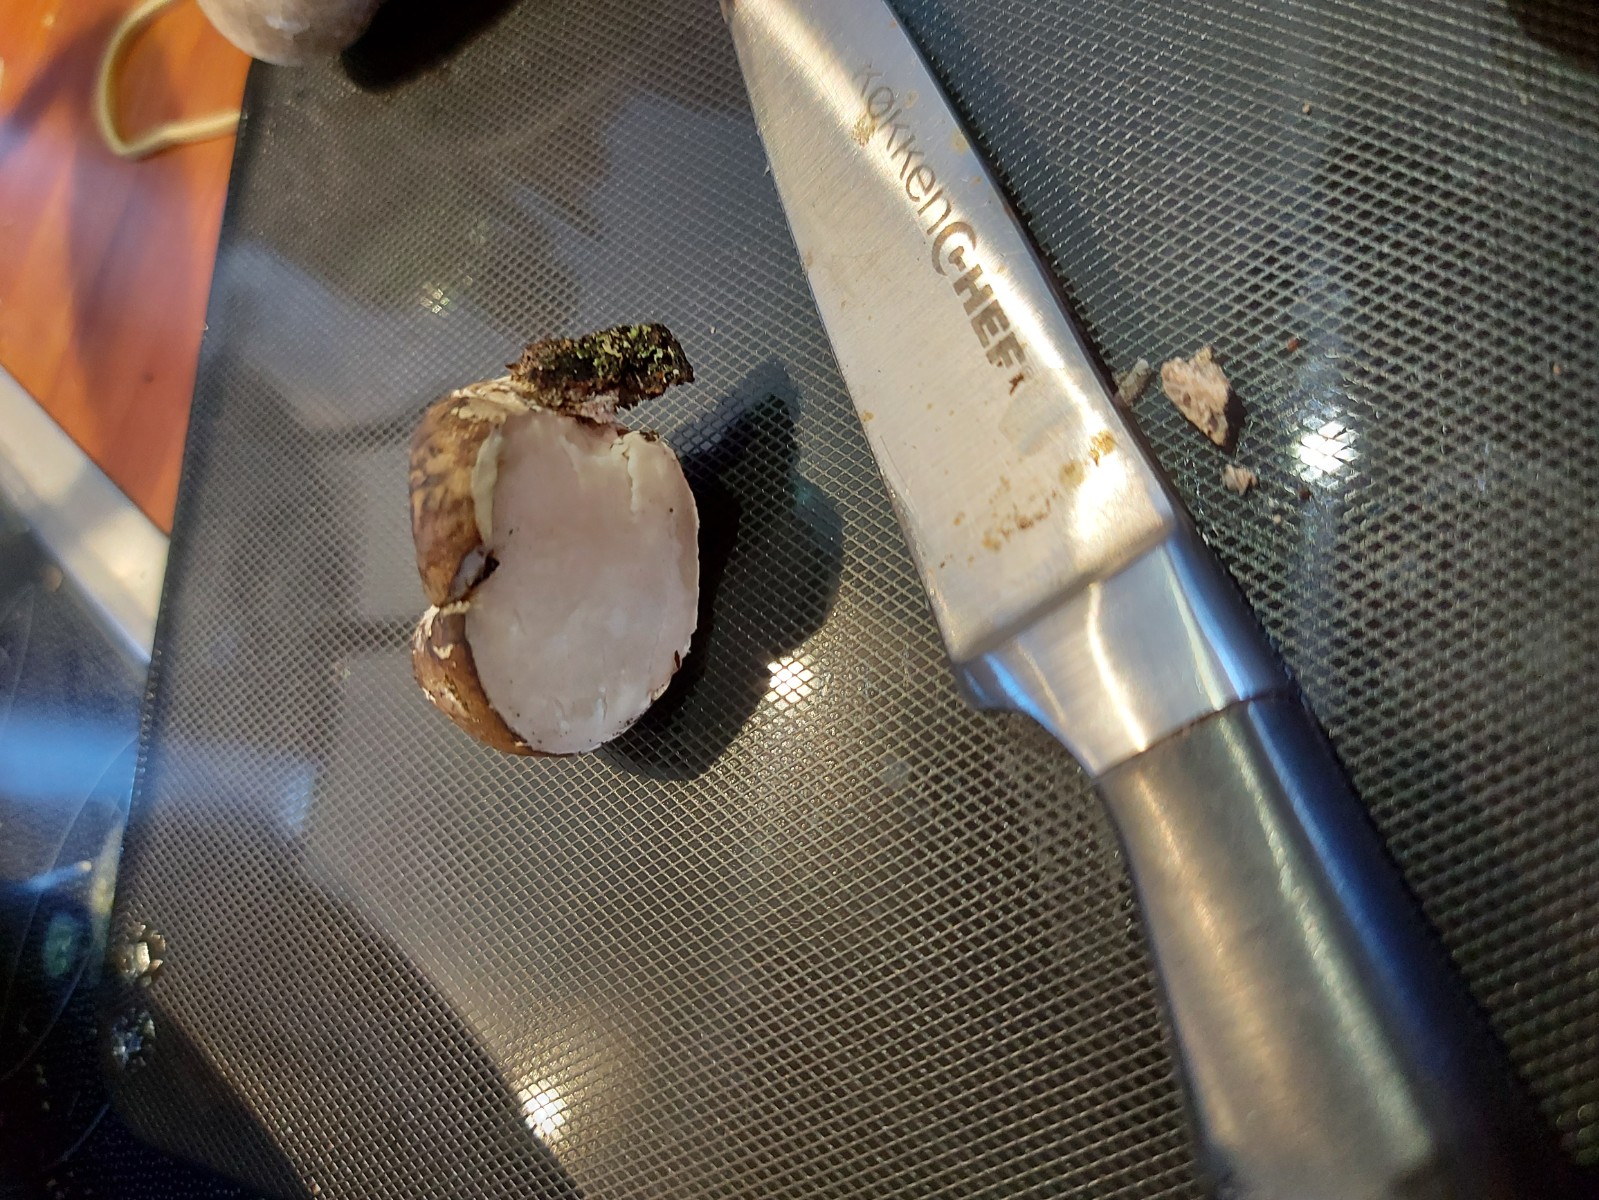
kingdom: Fungi
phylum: Basidiomycota
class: Agaricomycetes
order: Polyporales
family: Fomitopsidaceae
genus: Fomitopsis
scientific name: Fomitopsis betulina
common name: birkeporesvamp
